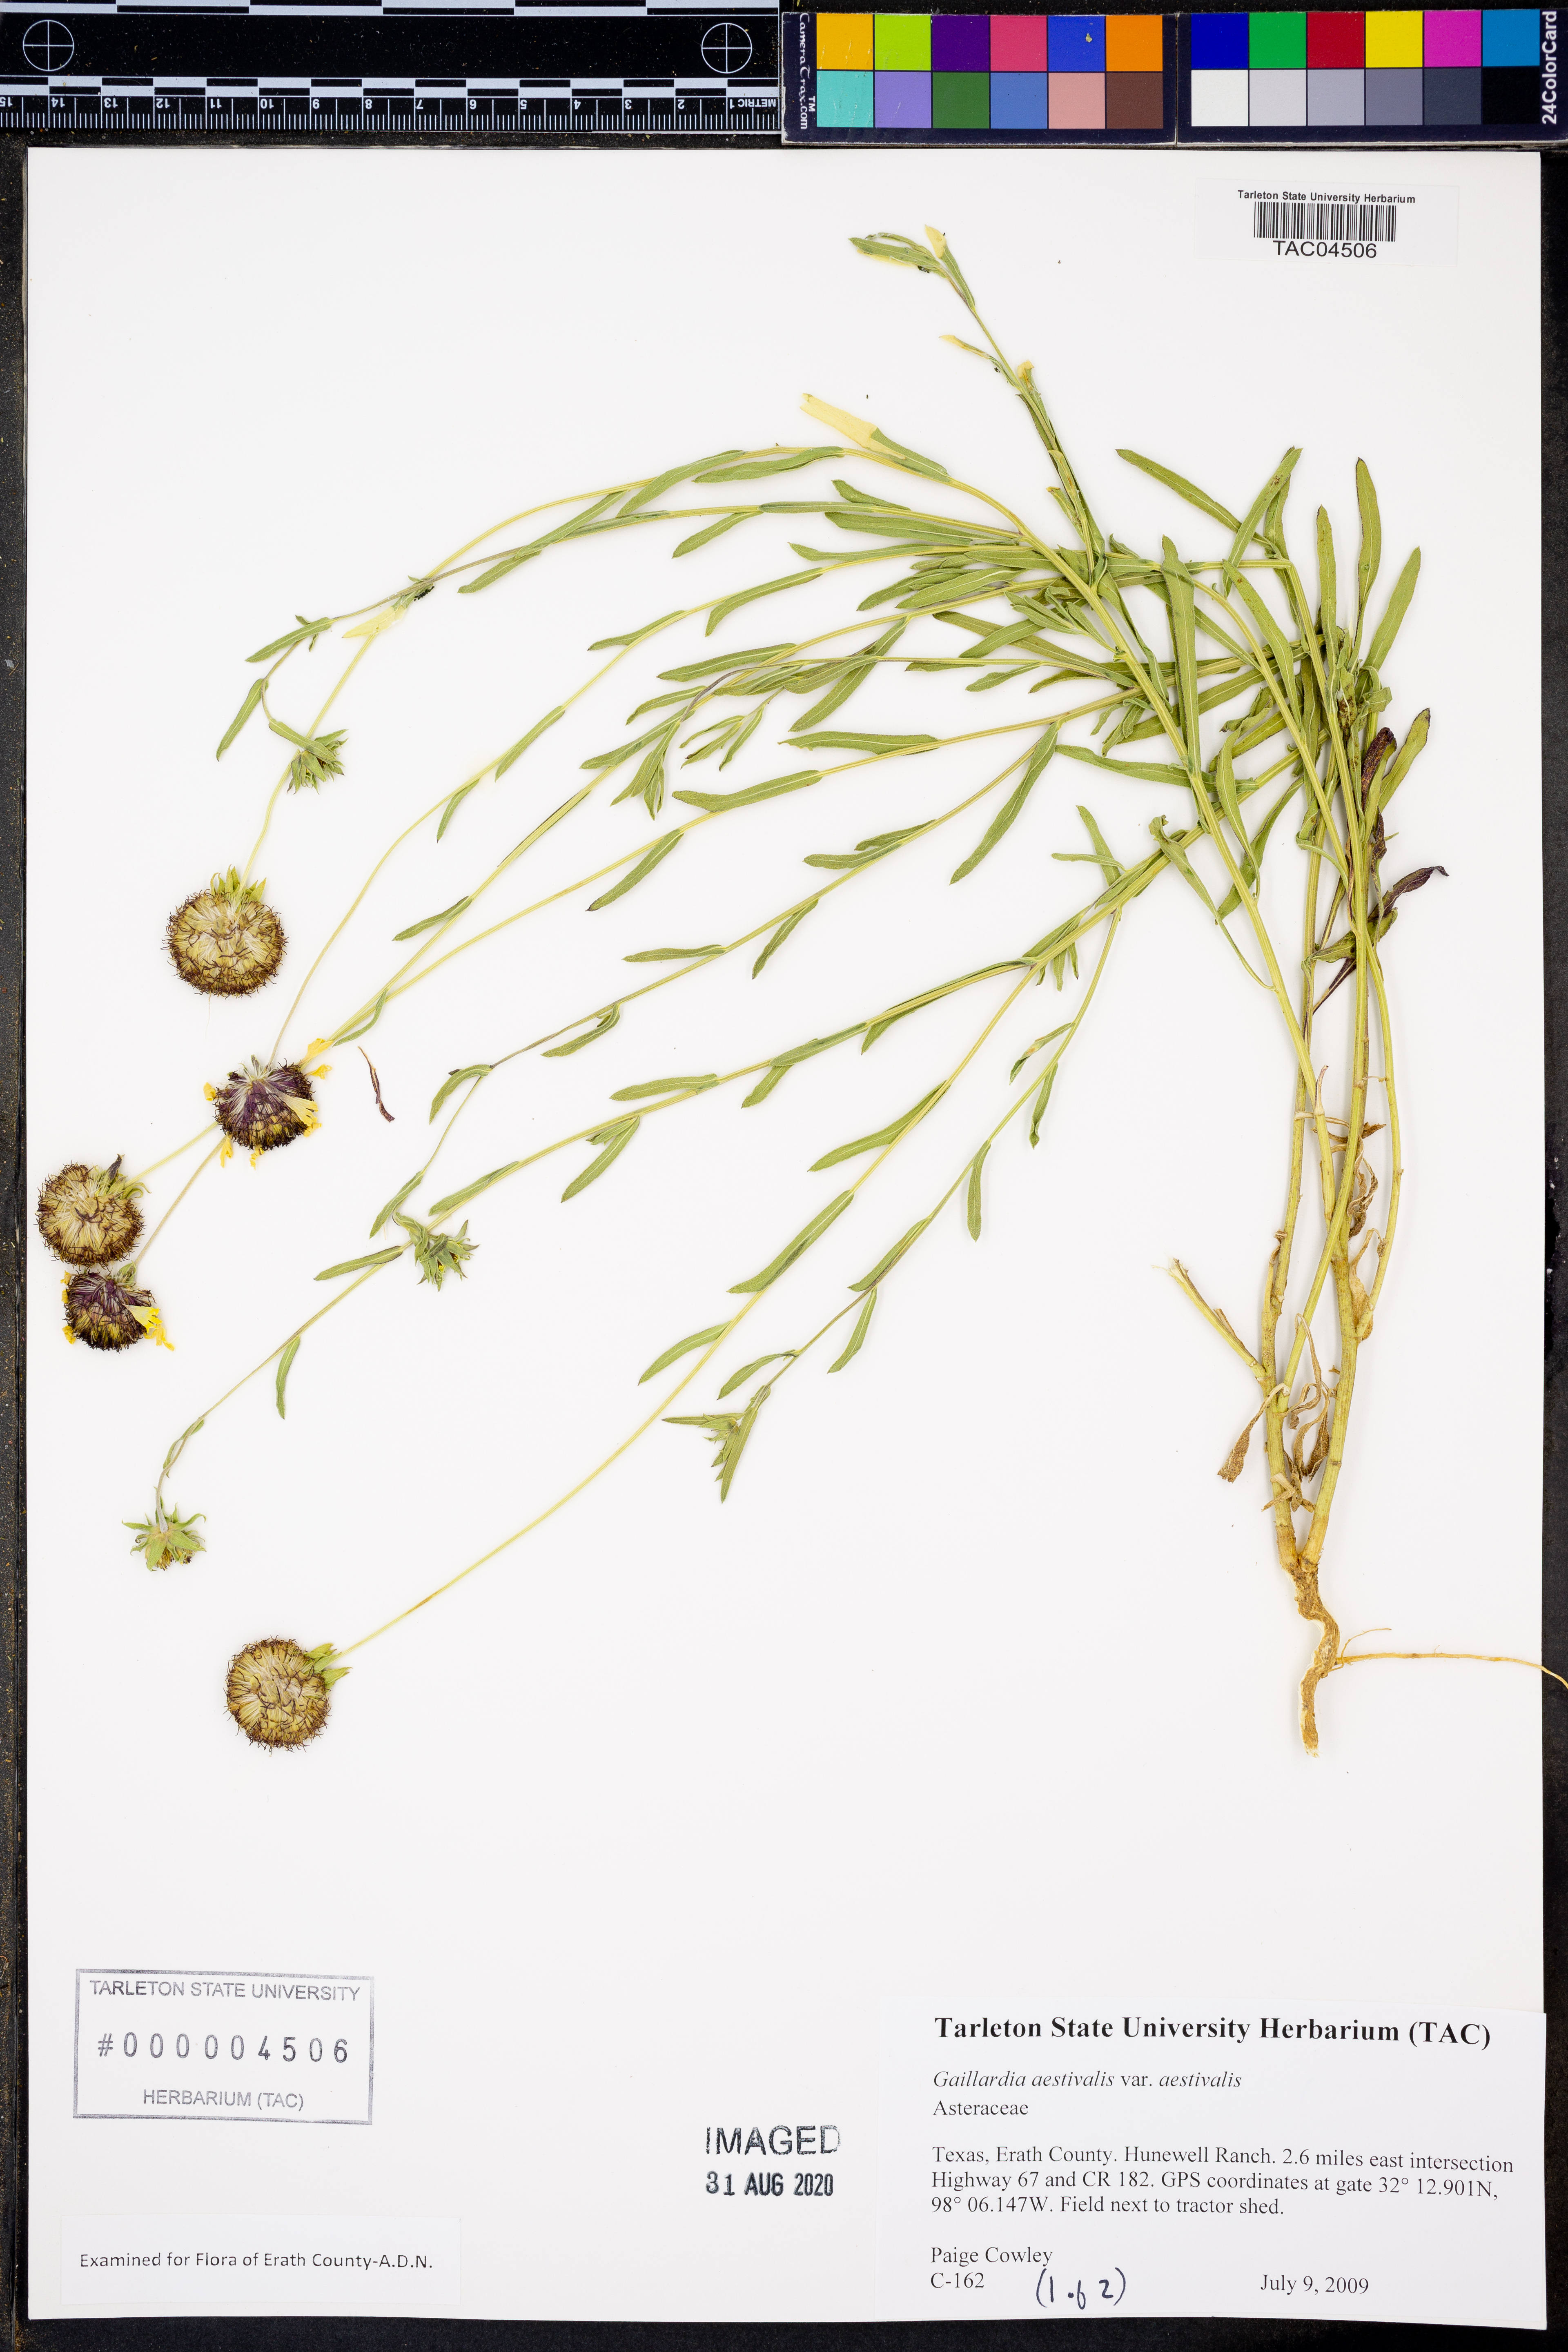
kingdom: Plantae
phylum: Tracheophyta
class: Magnoliopsida
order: Asterales
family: Asteraceae
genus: Gaillardia
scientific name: Gaillardia aestivalis
